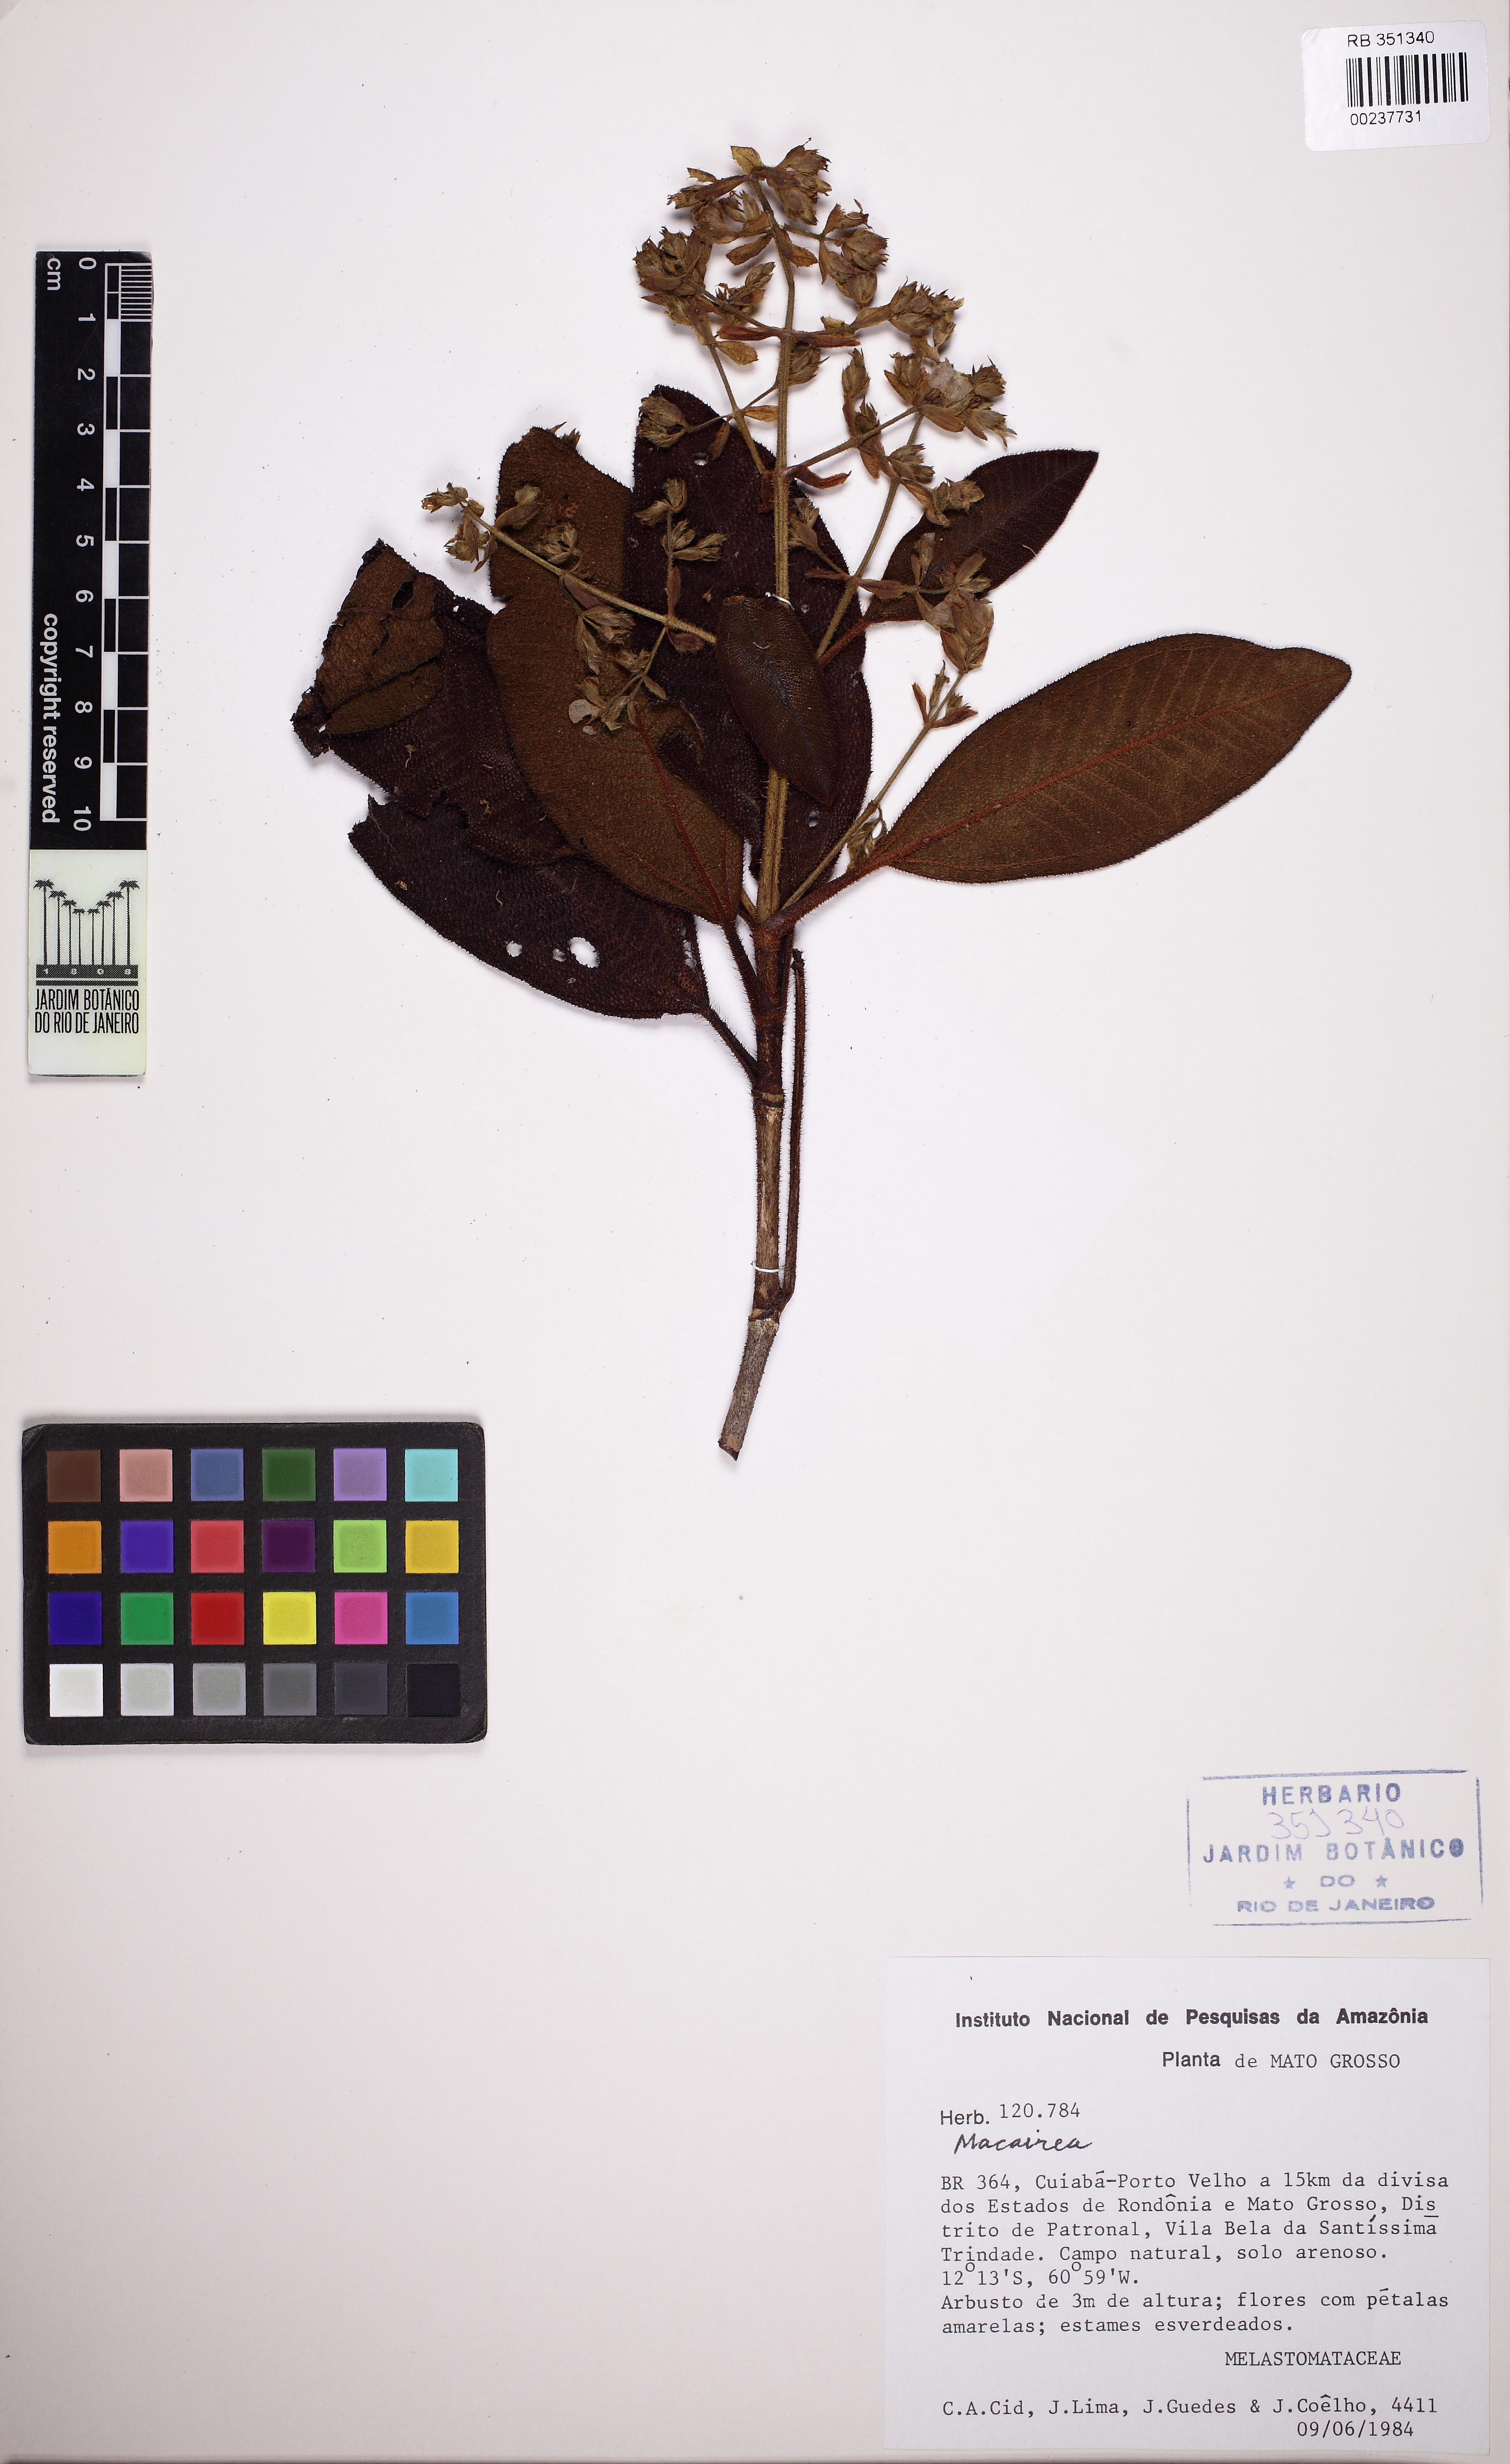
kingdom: Plantae
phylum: Tracheophyta
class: Magnoliopsida
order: Myrtales
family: Melastomataceae
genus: Macairea
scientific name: Macairea pachyphylla
